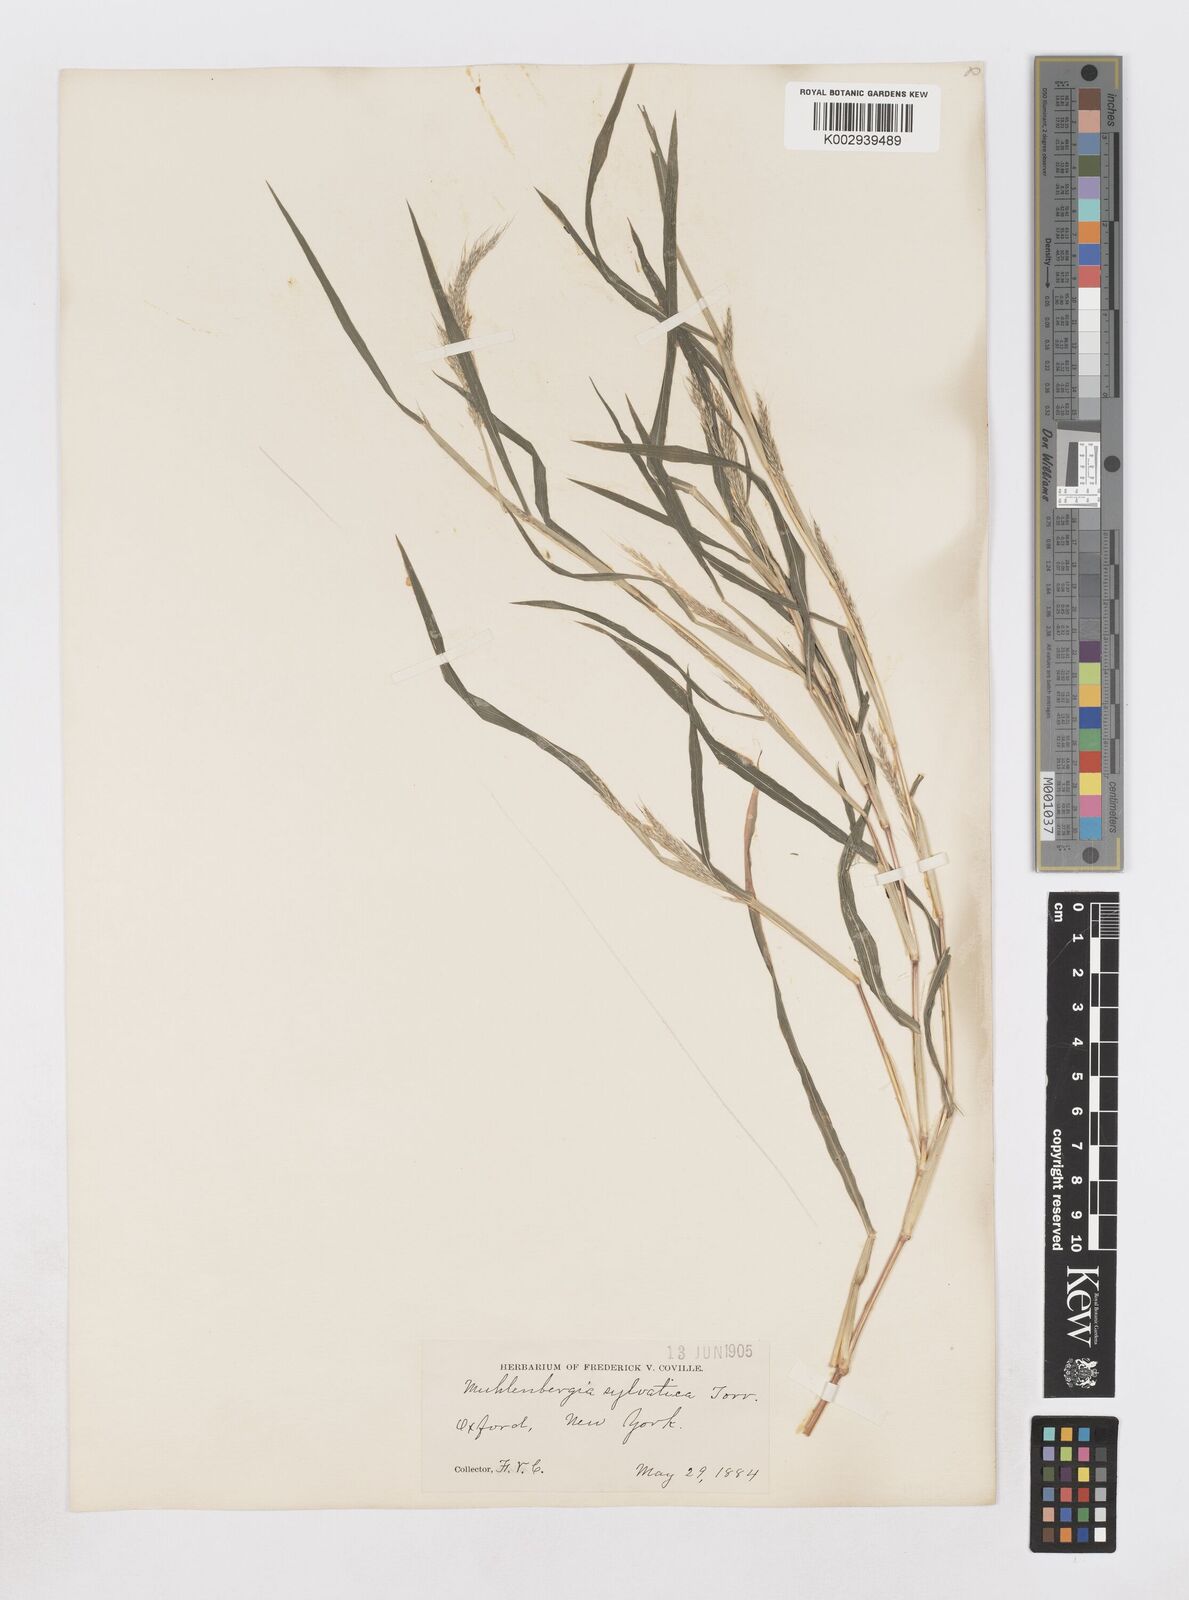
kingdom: Plantae
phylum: Tracheophyta
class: Liliopsida
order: Poales
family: Poaceae
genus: Muhlenbergia
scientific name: Muhlenbergia sylvatica
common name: Woodland muhly
